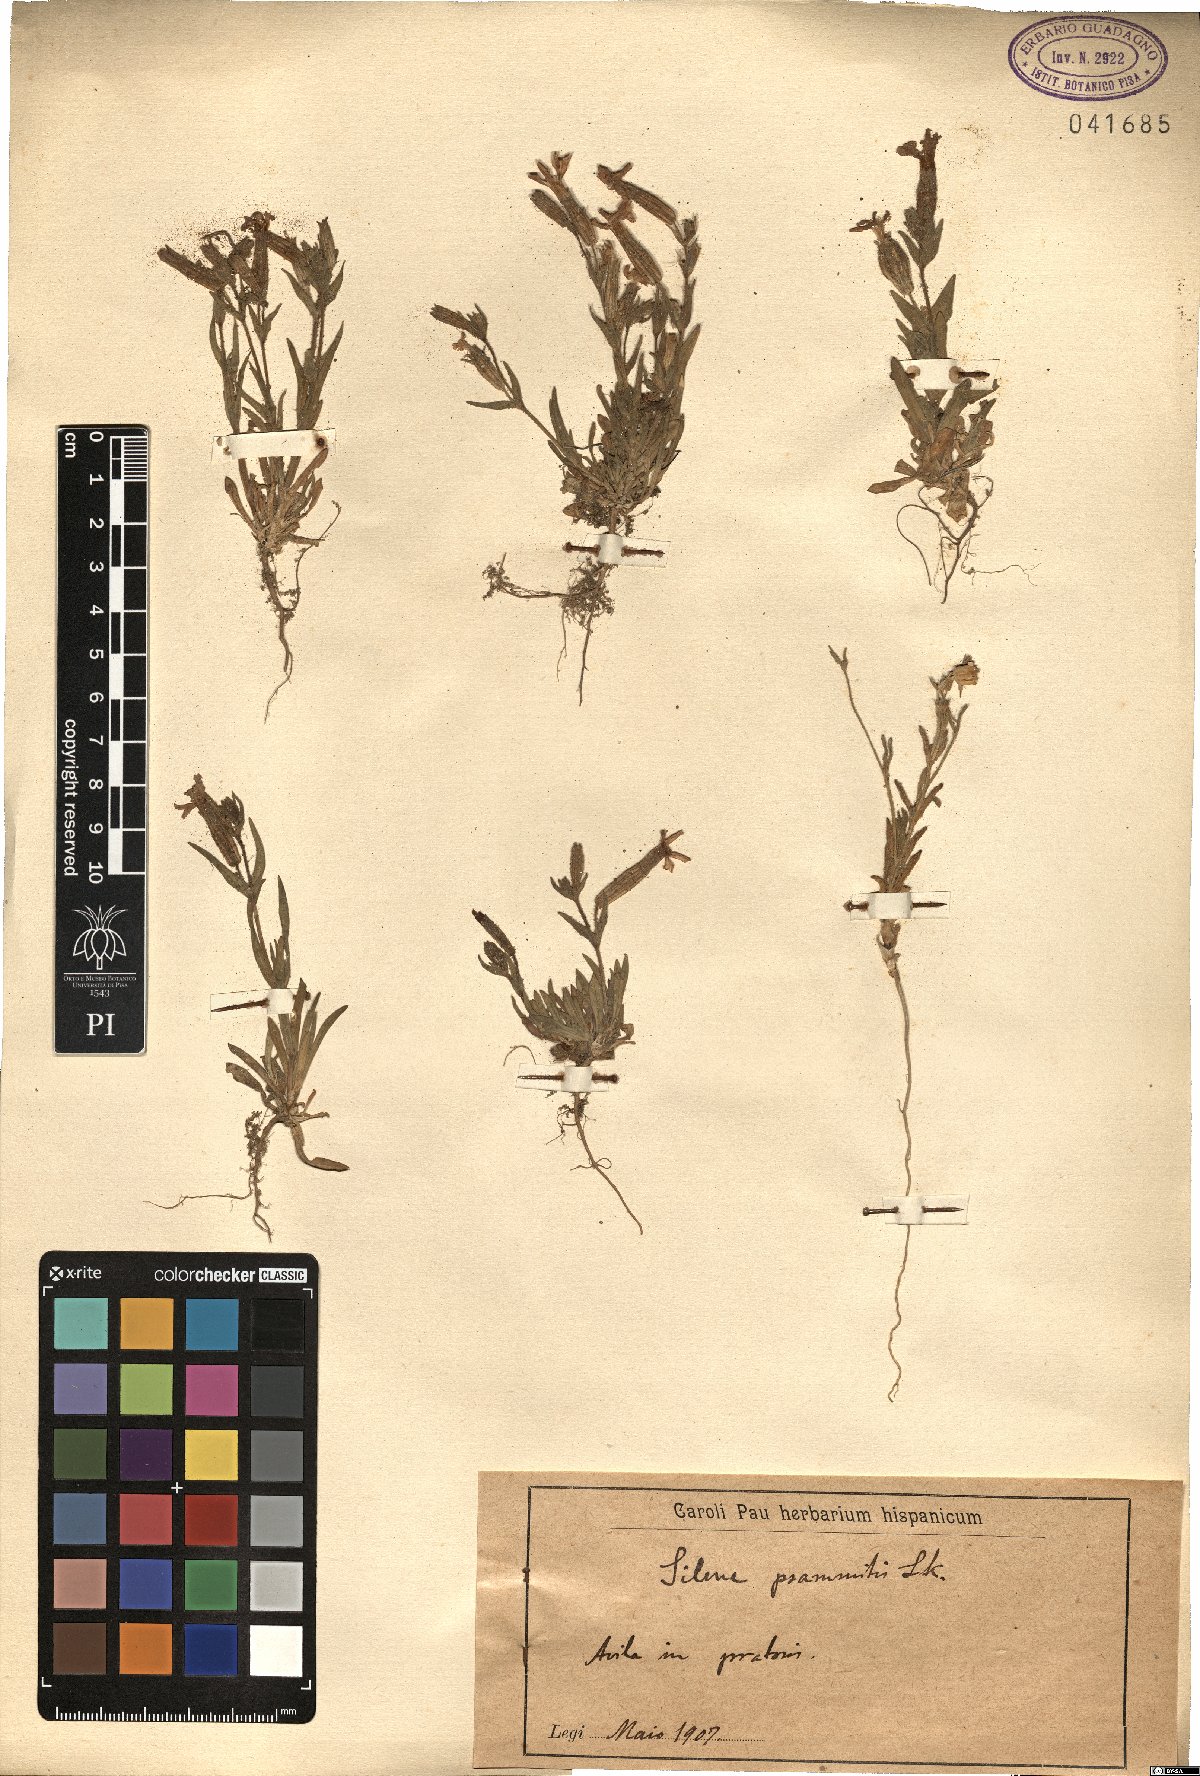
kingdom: Plantae
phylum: Tracheophyta
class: Magnoliopsida
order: Caryophyllales
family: Caryophyllaceae
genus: Silene
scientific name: Silene psammitis
